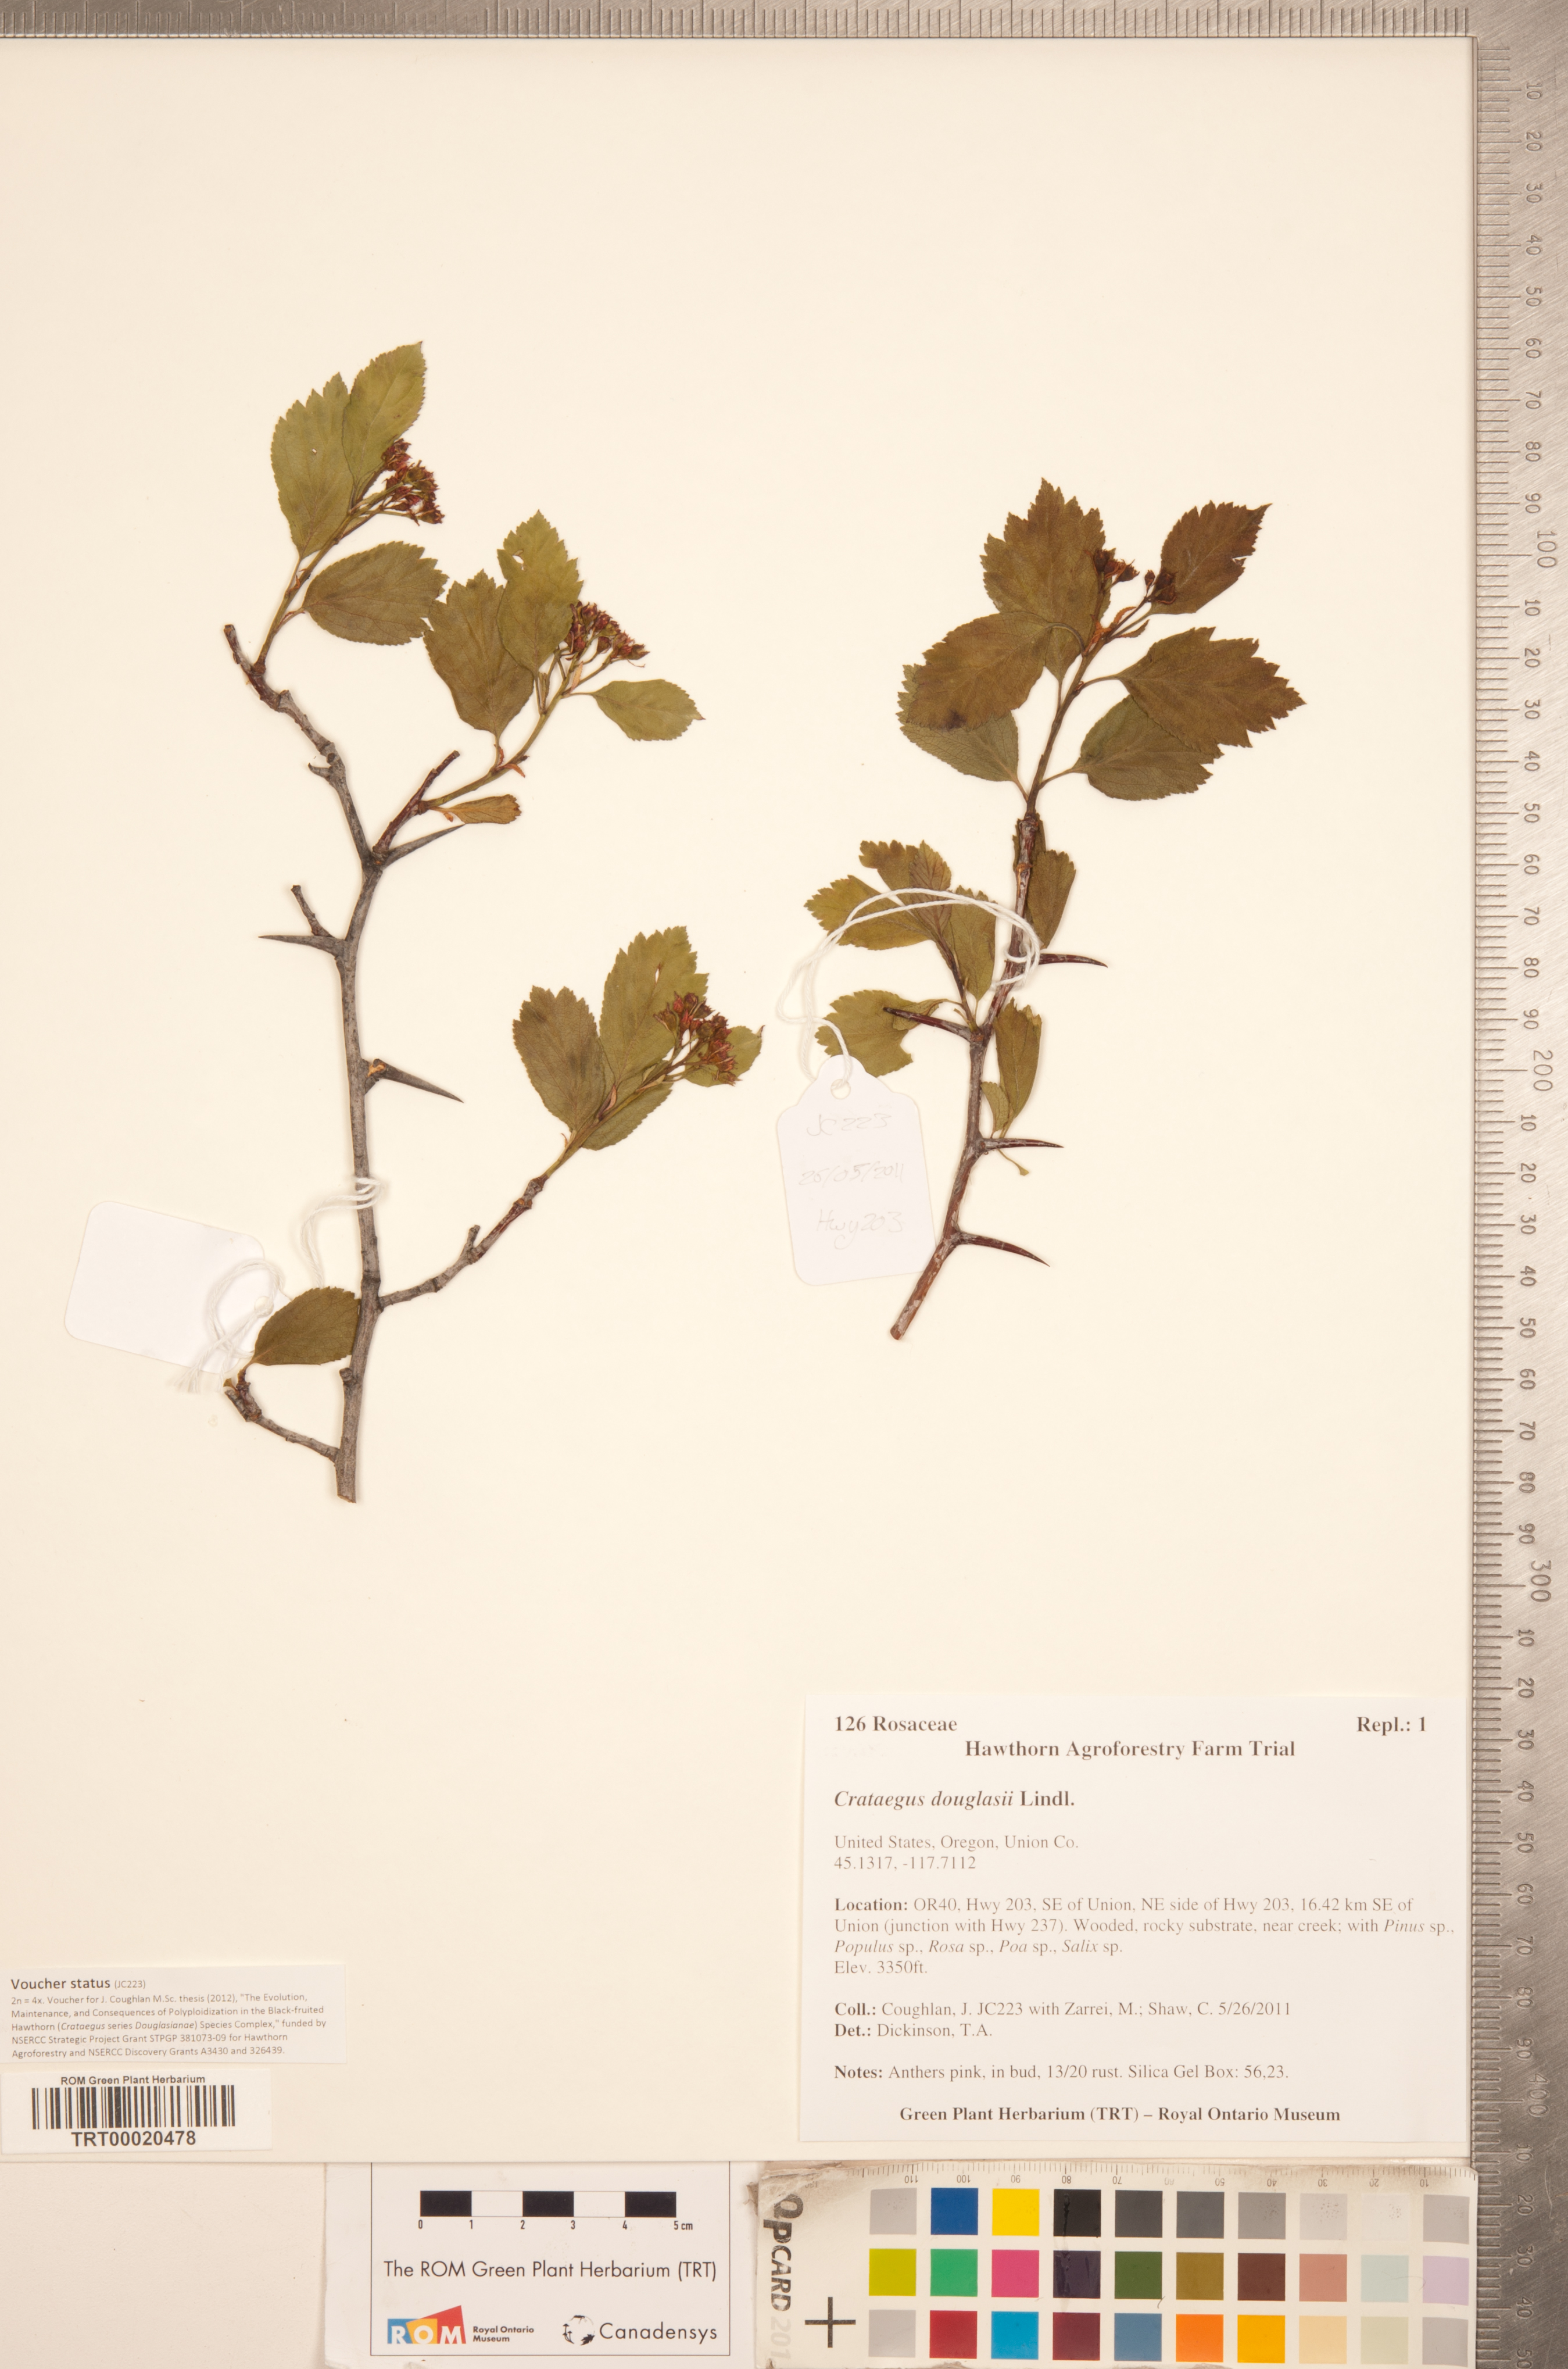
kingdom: Plantae
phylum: Tracheophyta
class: Magnoliopsida
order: Rosales
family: Rosaceae
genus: Crataegus
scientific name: Crataegus douglasii
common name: Black hawthorn
